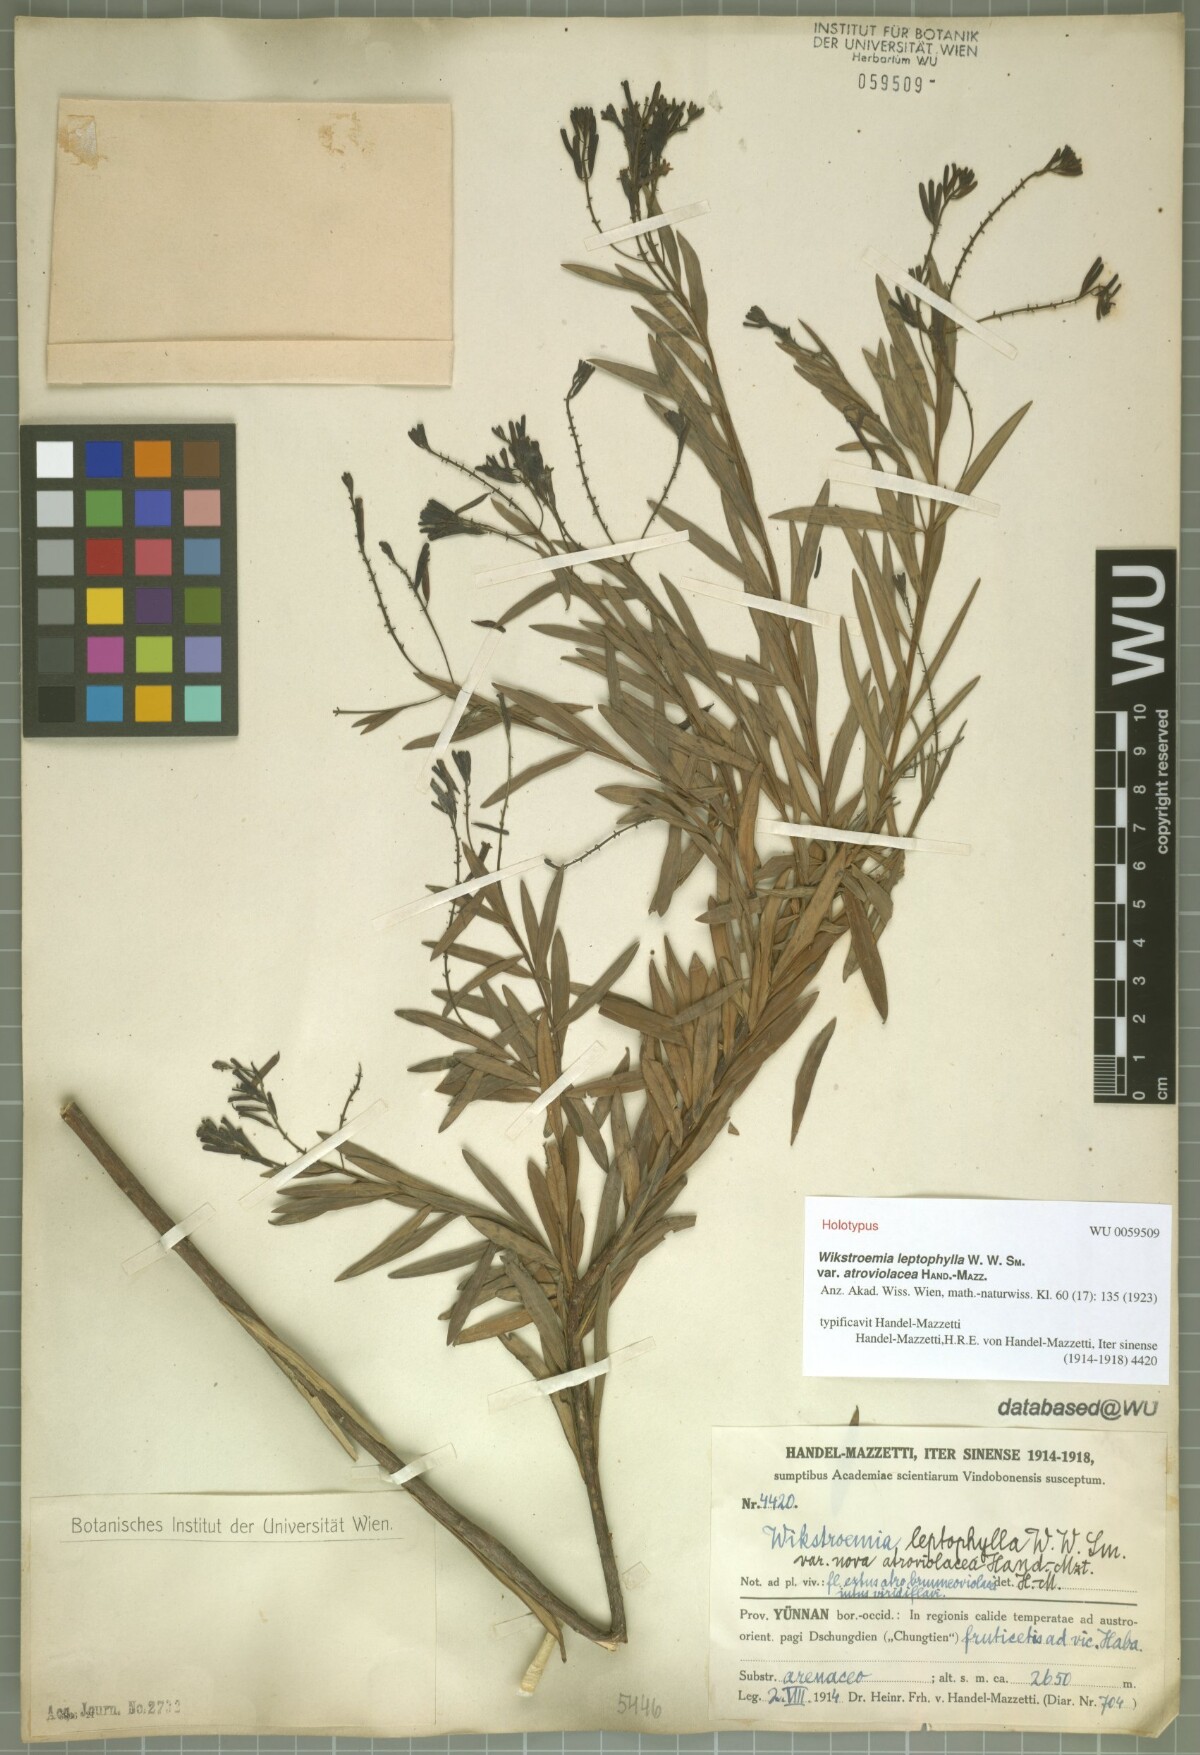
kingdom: Plantae
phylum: Tracheophyta
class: Magnoliopsida
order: Malvales
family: Thymelaeaceae
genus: Wikstroemia
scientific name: Wikstroemia leptophylla
